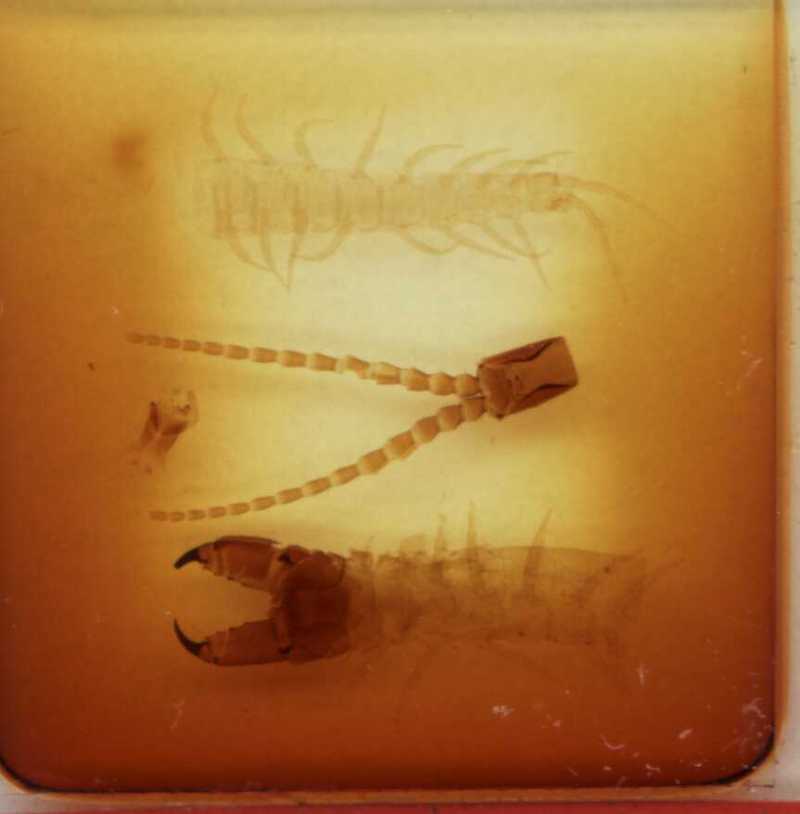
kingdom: Animalia
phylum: Arthropoda
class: Chilopoda
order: Geophilomorpha
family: Mecistocephalidae
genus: Mecistocephalus
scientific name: Mecistocephalus mauritianus
